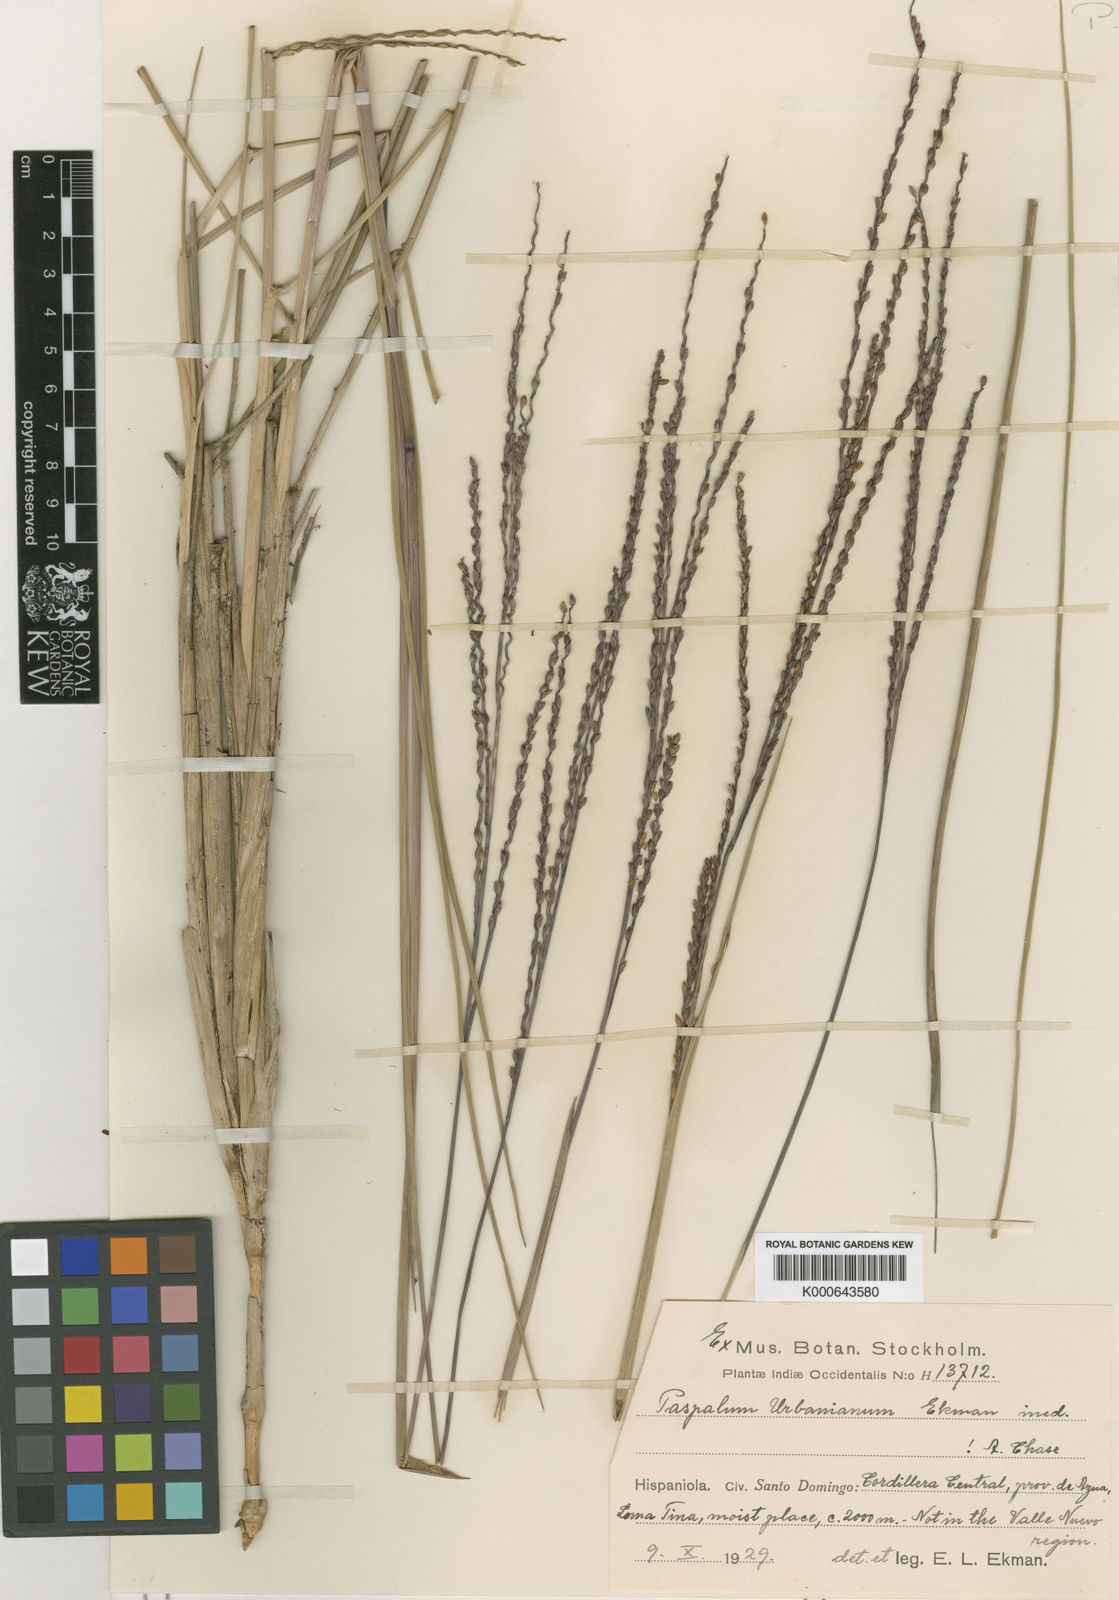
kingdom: Plantae
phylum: Tracheophyta
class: Liliopsida
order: Poales
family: Poaceae
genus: Paspalum
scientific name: Paspalum
